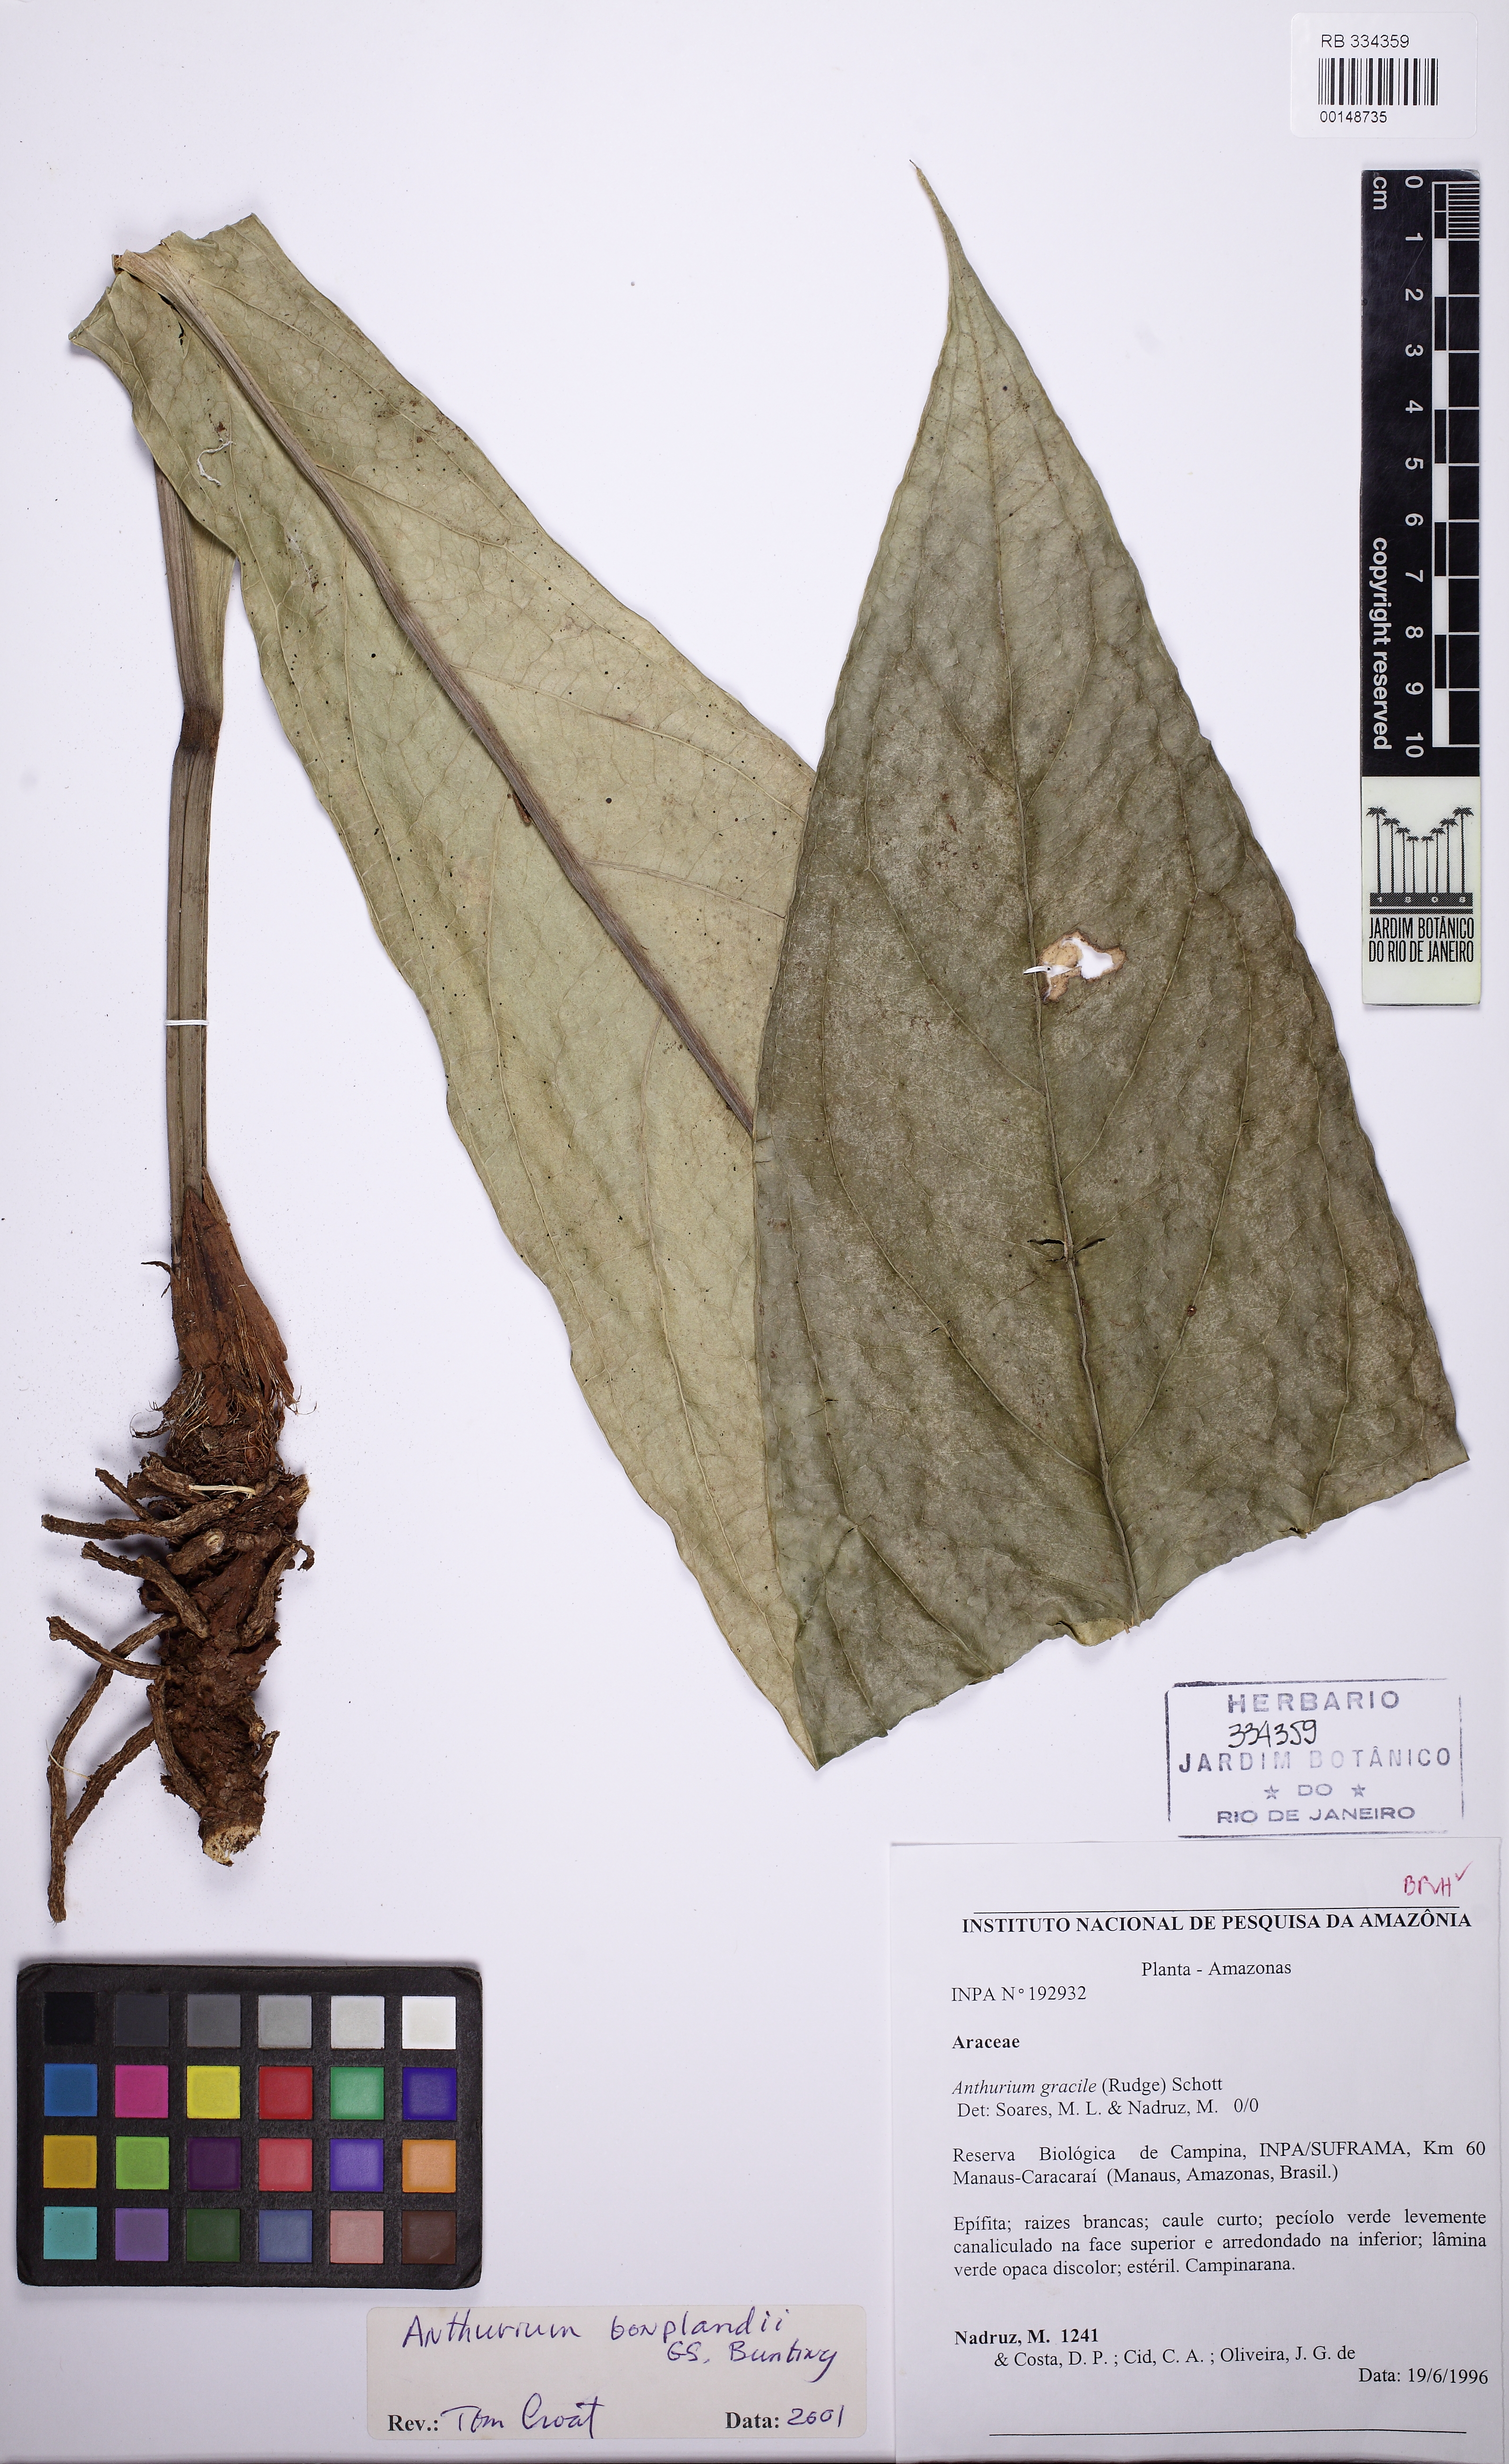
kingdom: Plantae
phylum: Tracheophyta
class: Liliopsida
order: Alismatales
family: Araceae
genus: Anthurium
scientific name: Anthurium bonplandii
